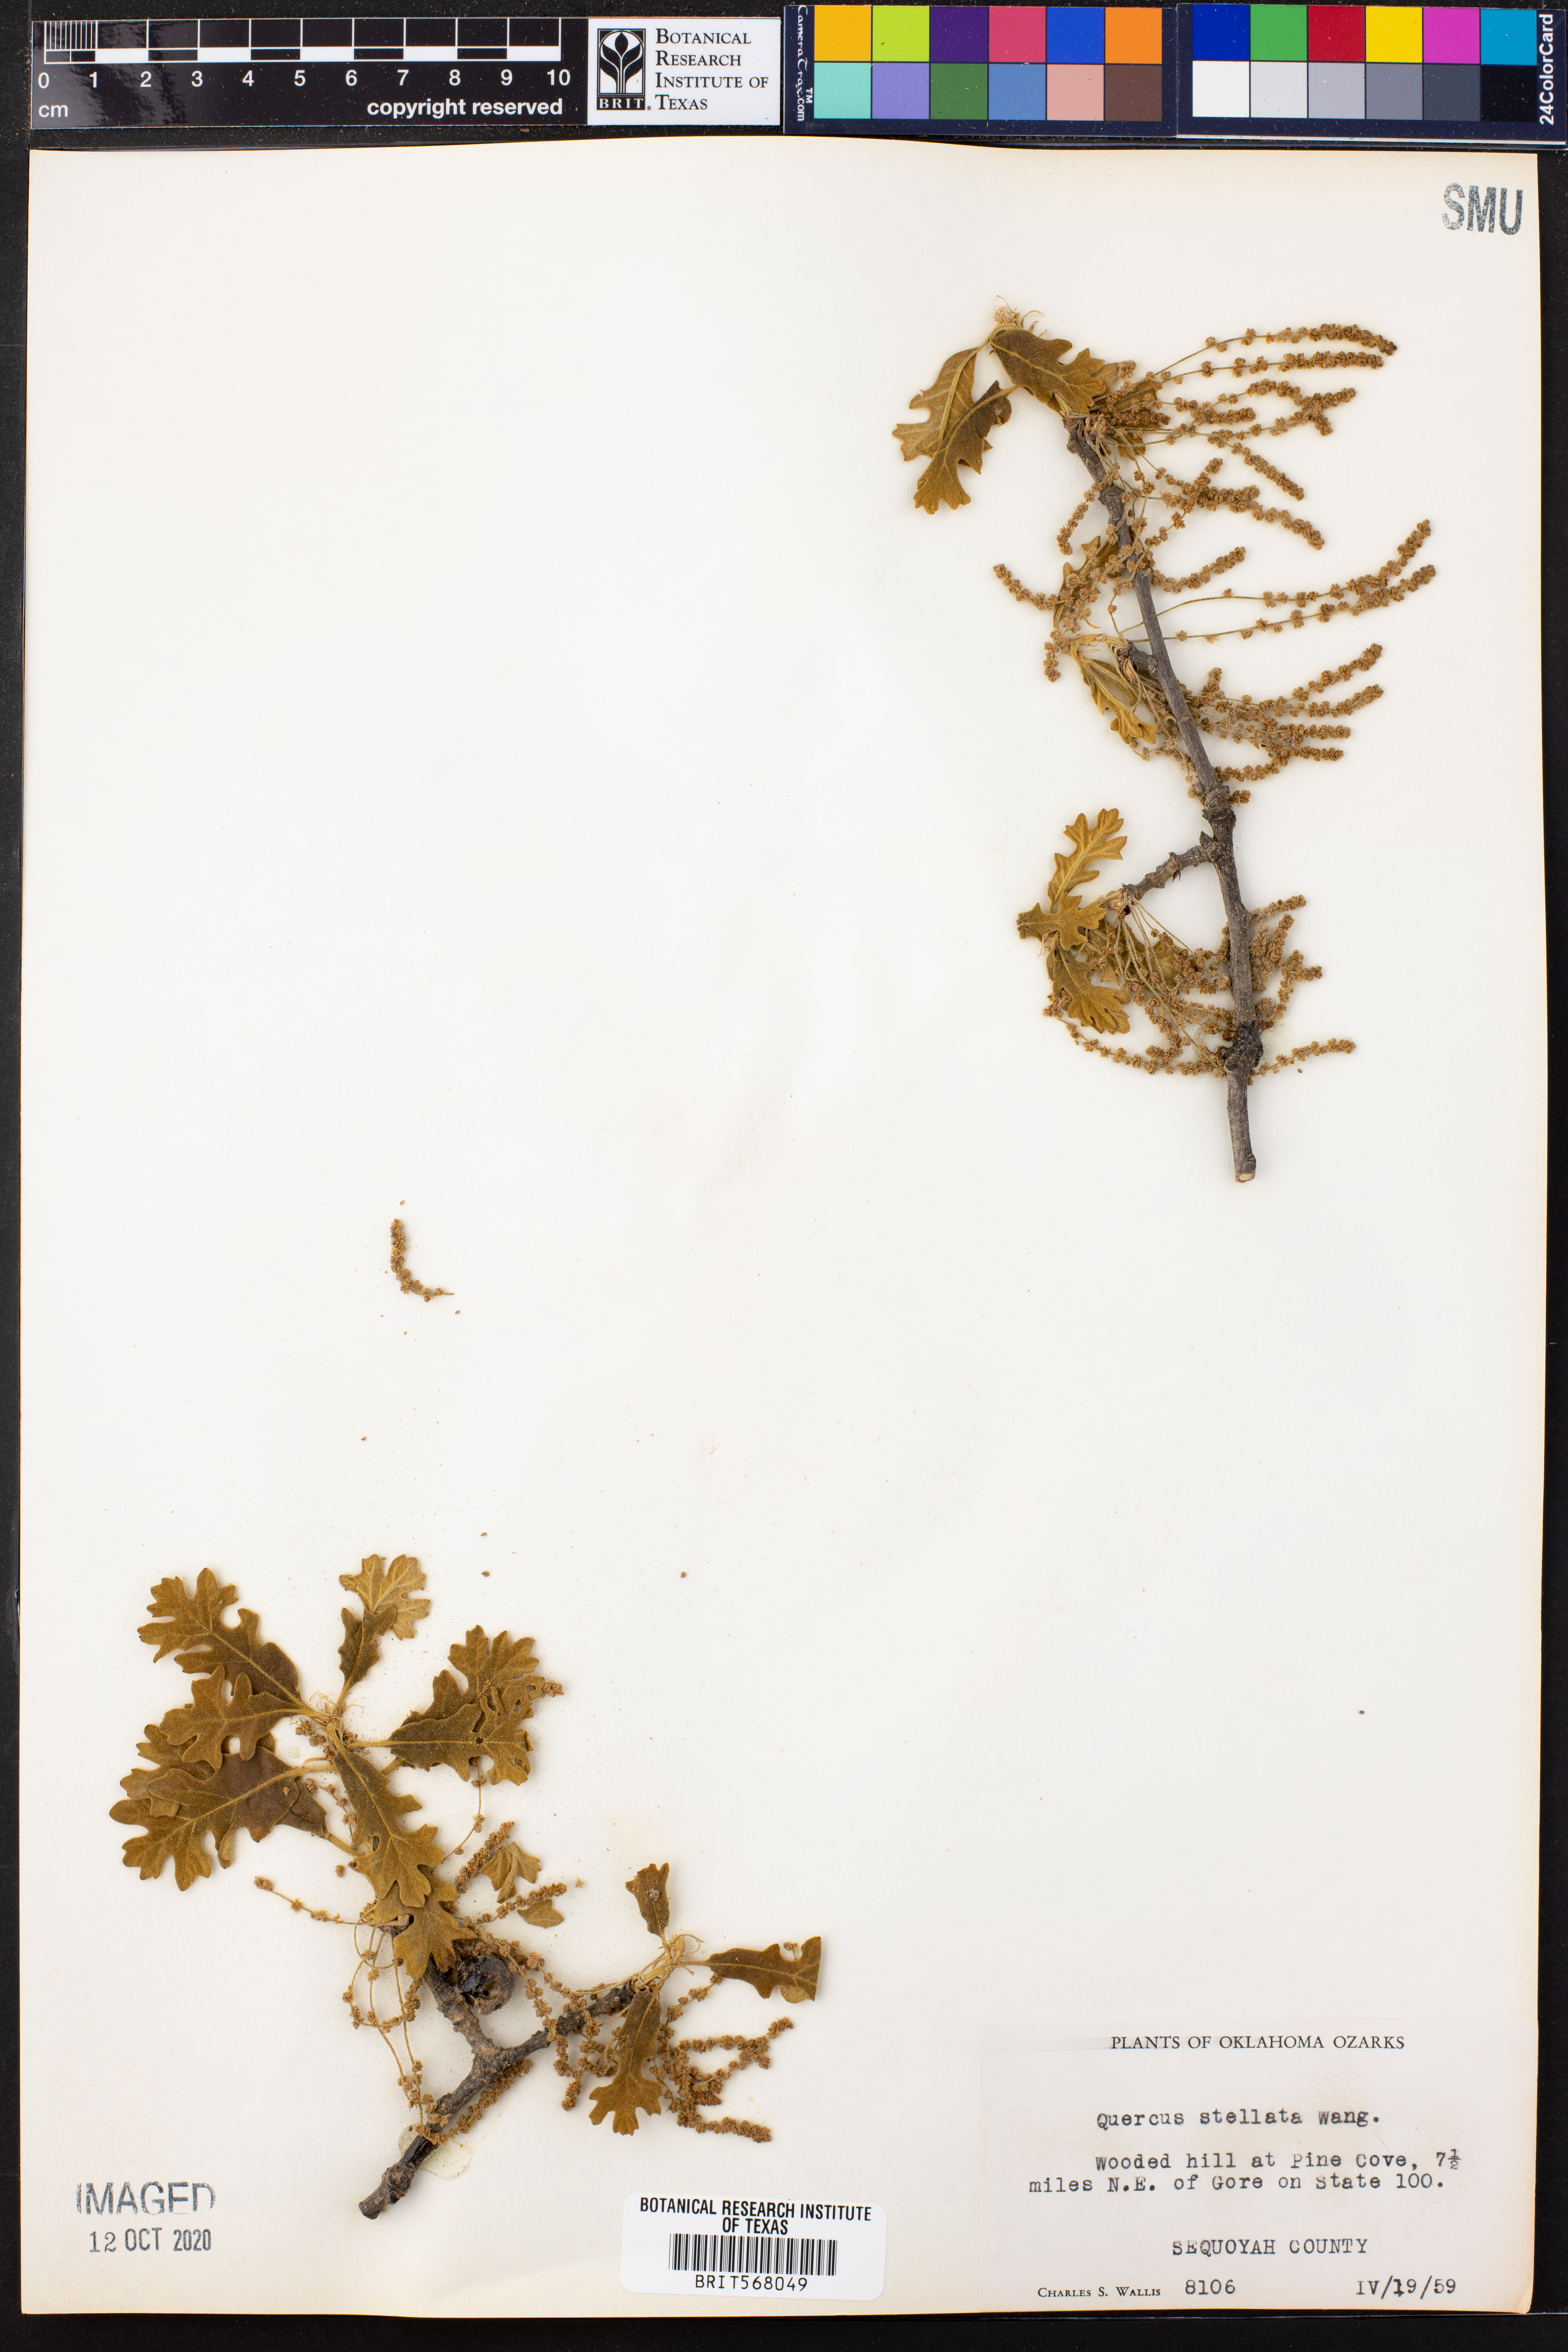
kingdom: Plantae
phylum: Tracheophyta
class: Magnoliopsida
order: Fagales
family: Fagaceae
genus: Quercus
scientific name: Quercus stellata
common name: Post oak
